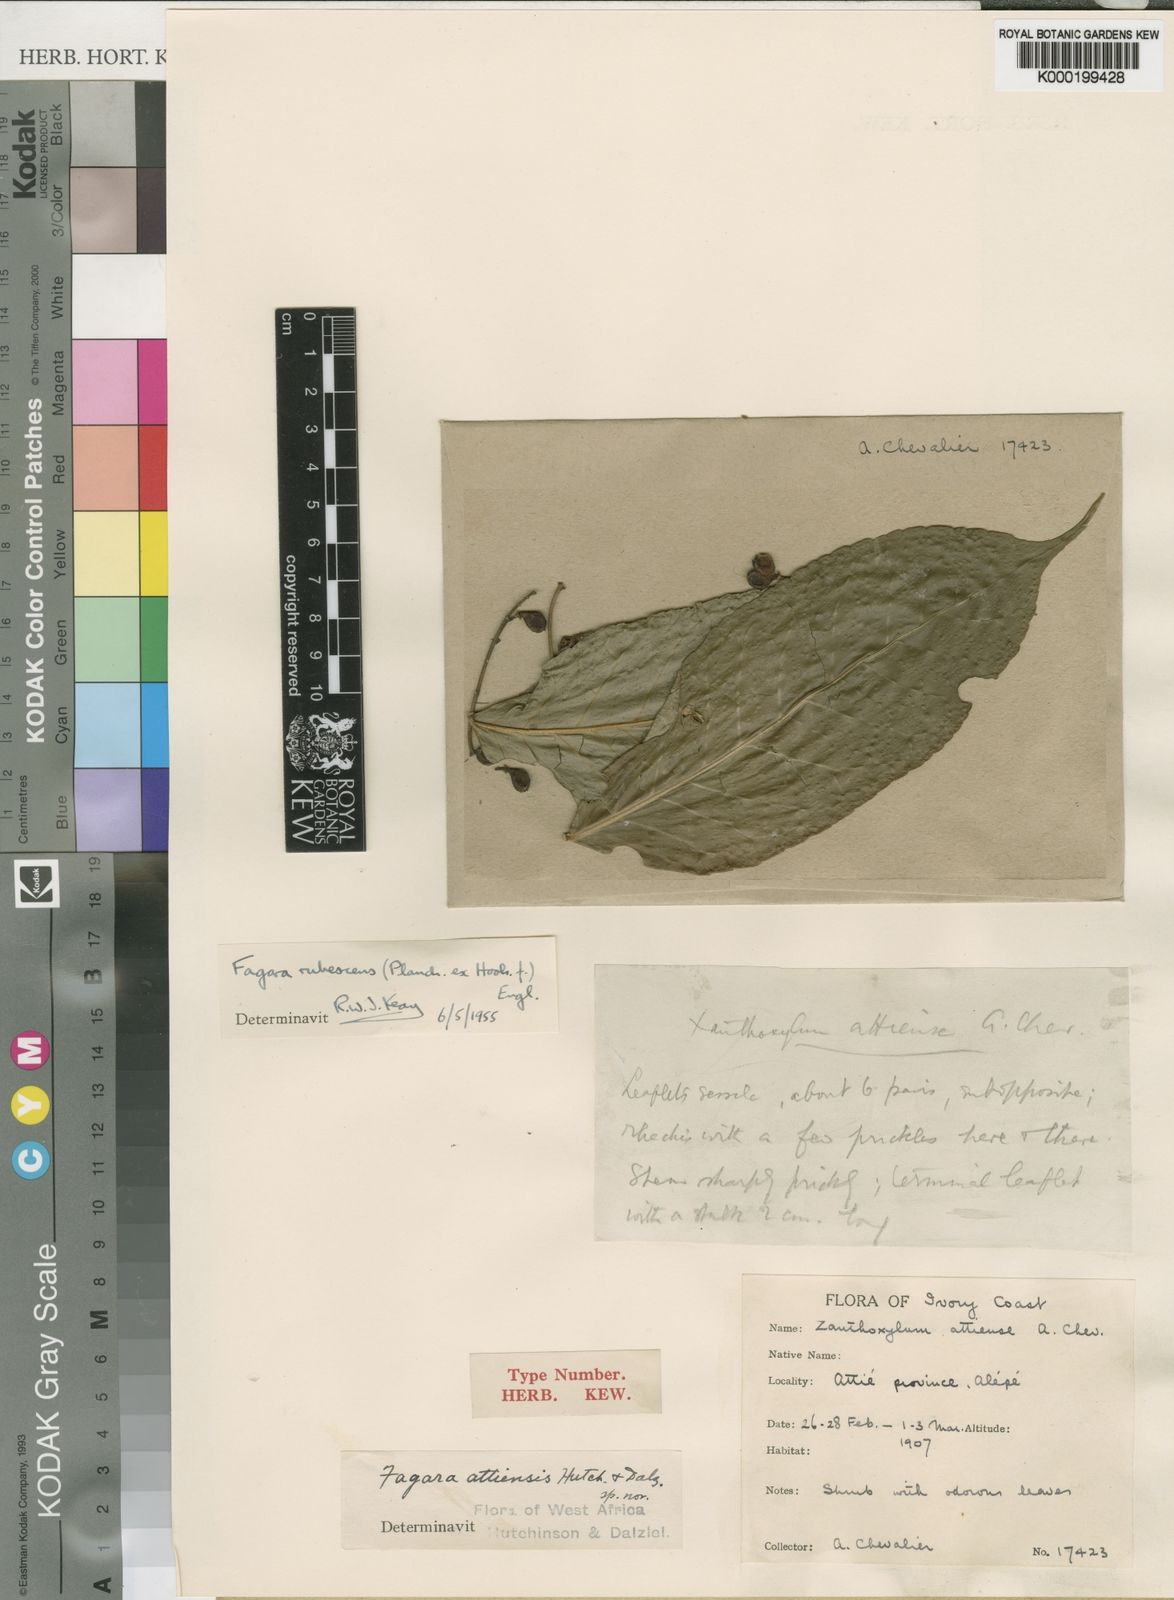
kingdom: Plantae
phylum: Tracheophyta
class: Magnoliopsida
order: Sapindales
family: Rutaceae
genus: Zanthoxylum
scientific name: Zanthoxylum rubescens
